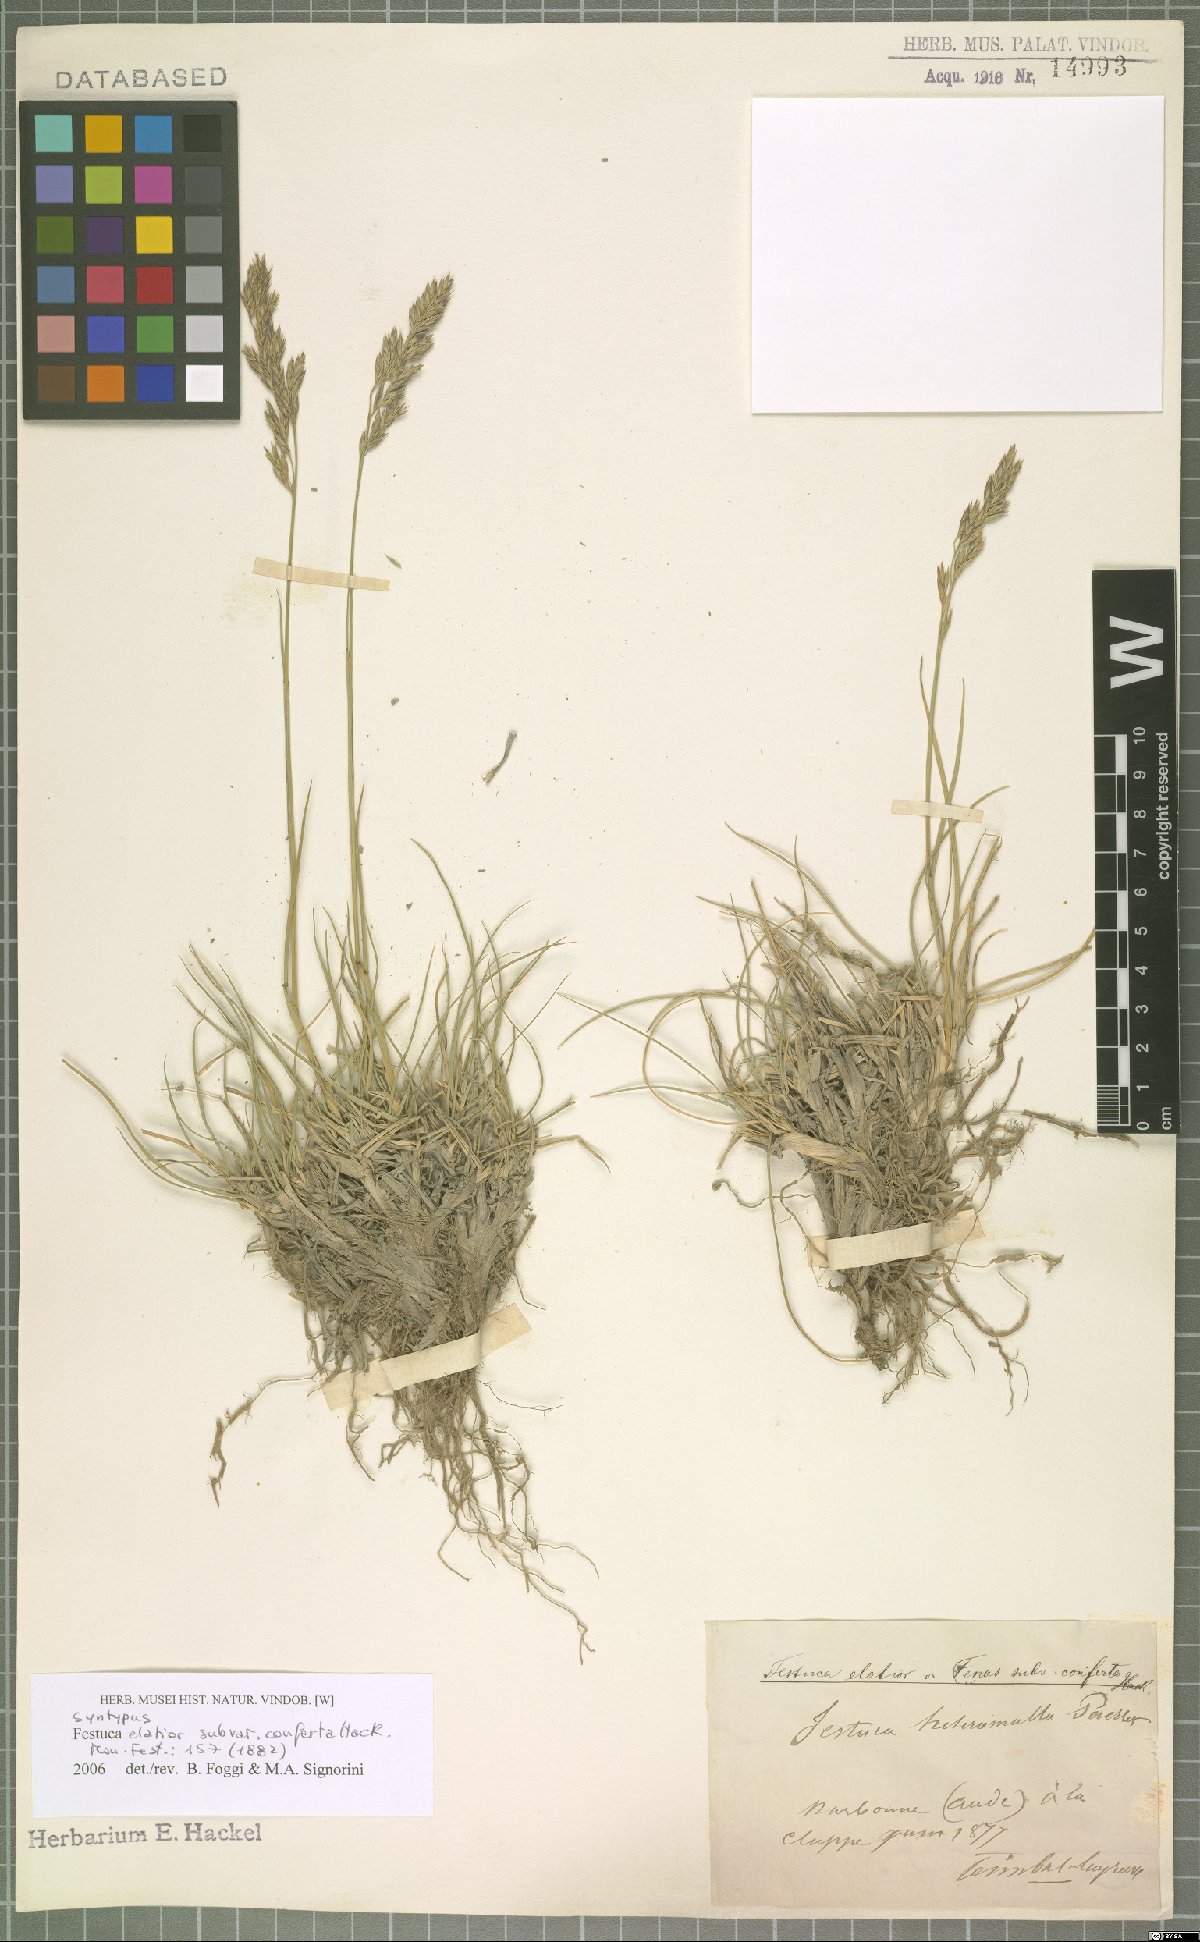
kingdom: Plantae
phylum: Tracheophyta
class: Liliopsida
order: Poales
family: Poaceae
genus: Lolium
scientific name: Lolium arundinaceum
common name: Reed fescue
